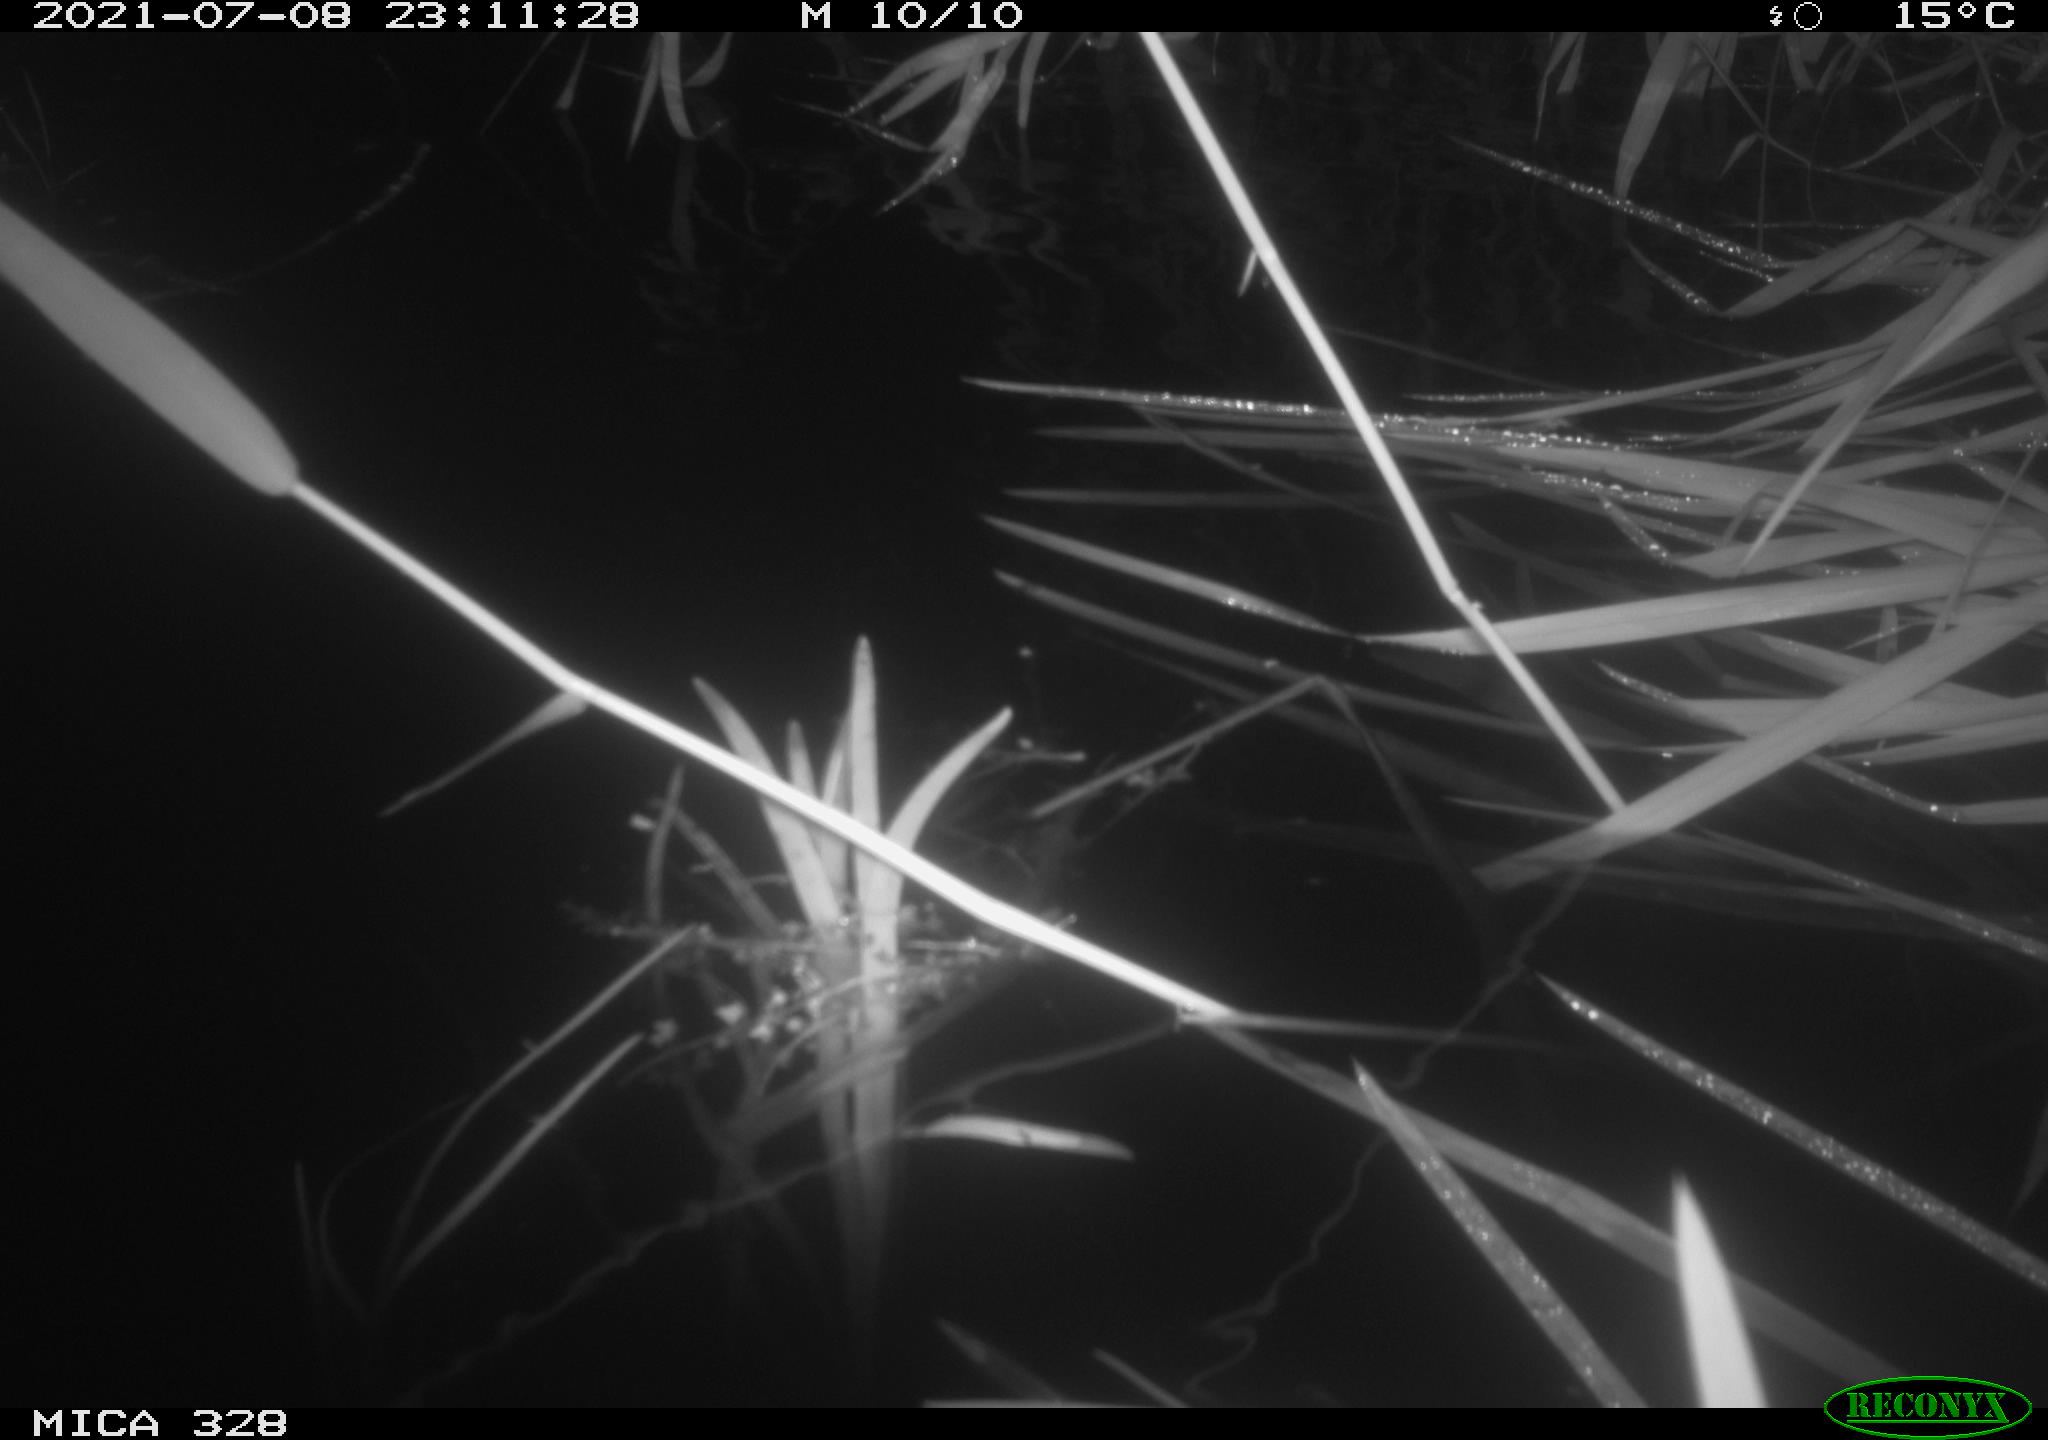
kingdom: Animalia
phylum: Chordata
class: Mammalia
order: Rodentia
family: Cricetidae
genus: Ondatra
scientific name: Ondatra zibethicus
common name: Muskrat
